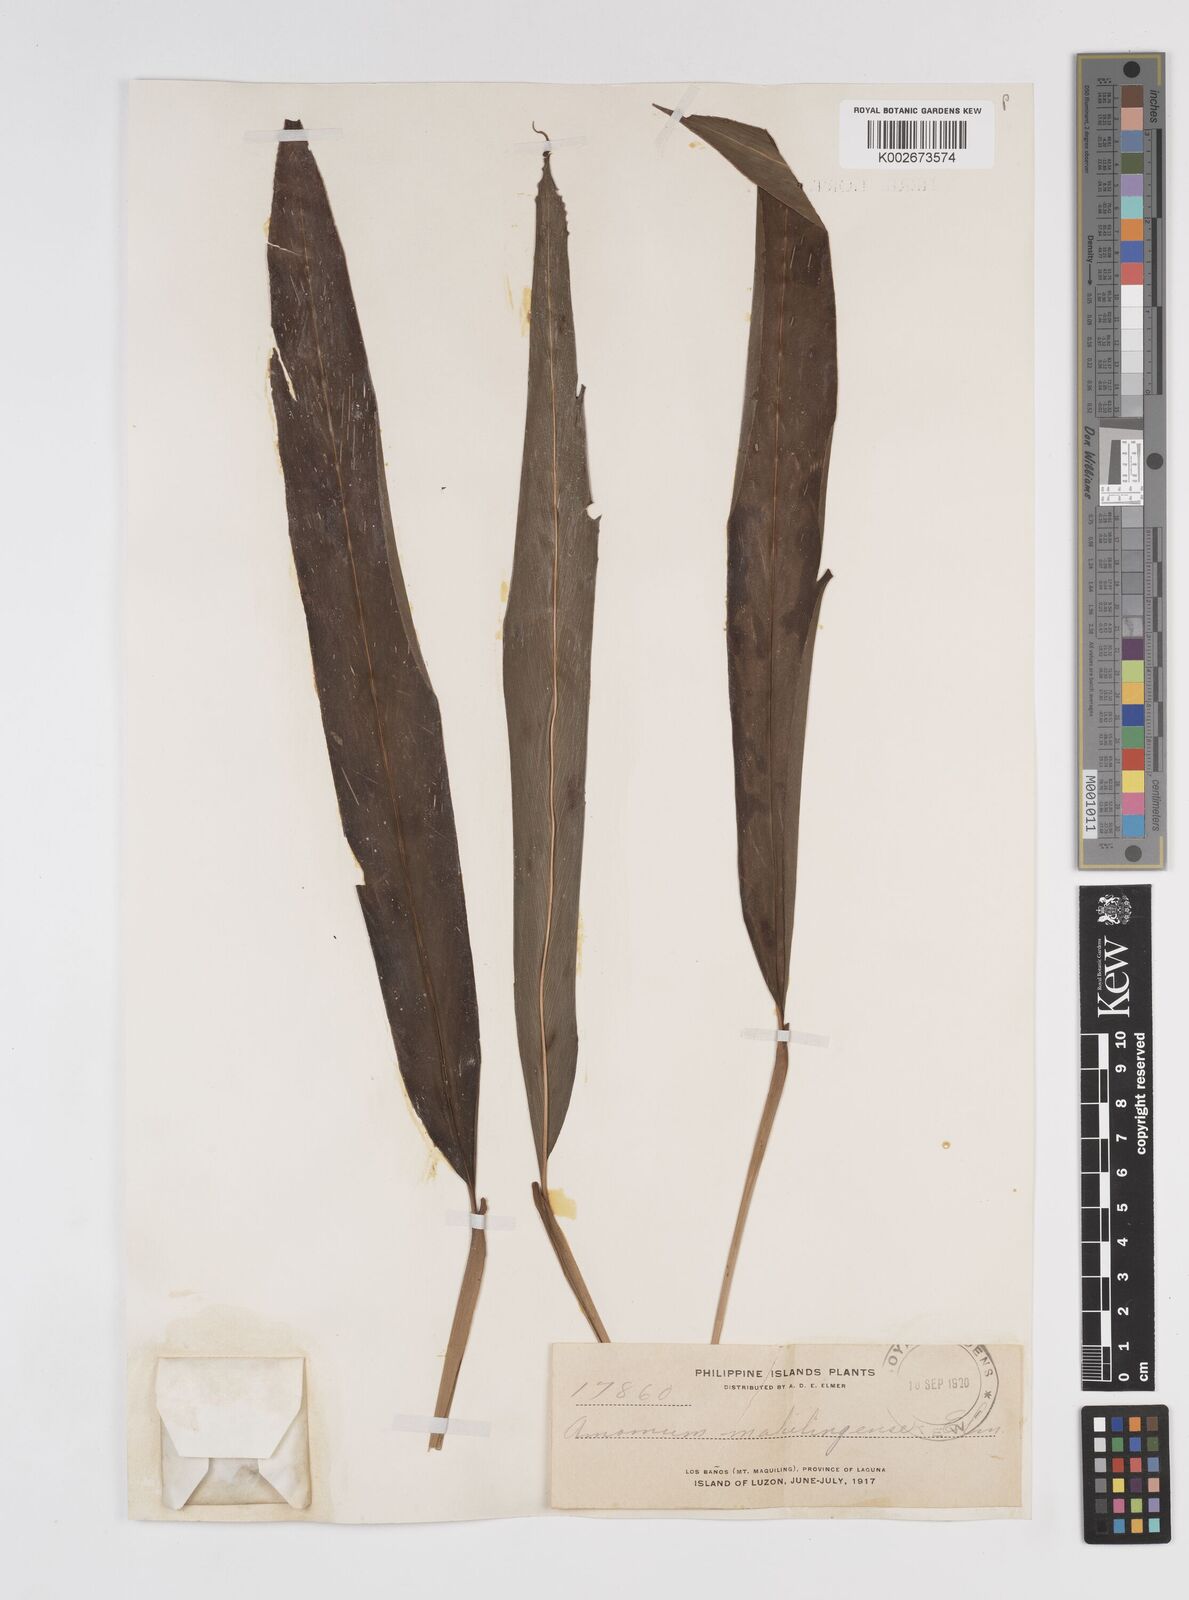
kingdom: Plantae
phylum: Tracheophyta
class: Liliopsida
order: Zingiberales
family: Zingiberaceae
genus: Amomum
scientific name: Amomum
